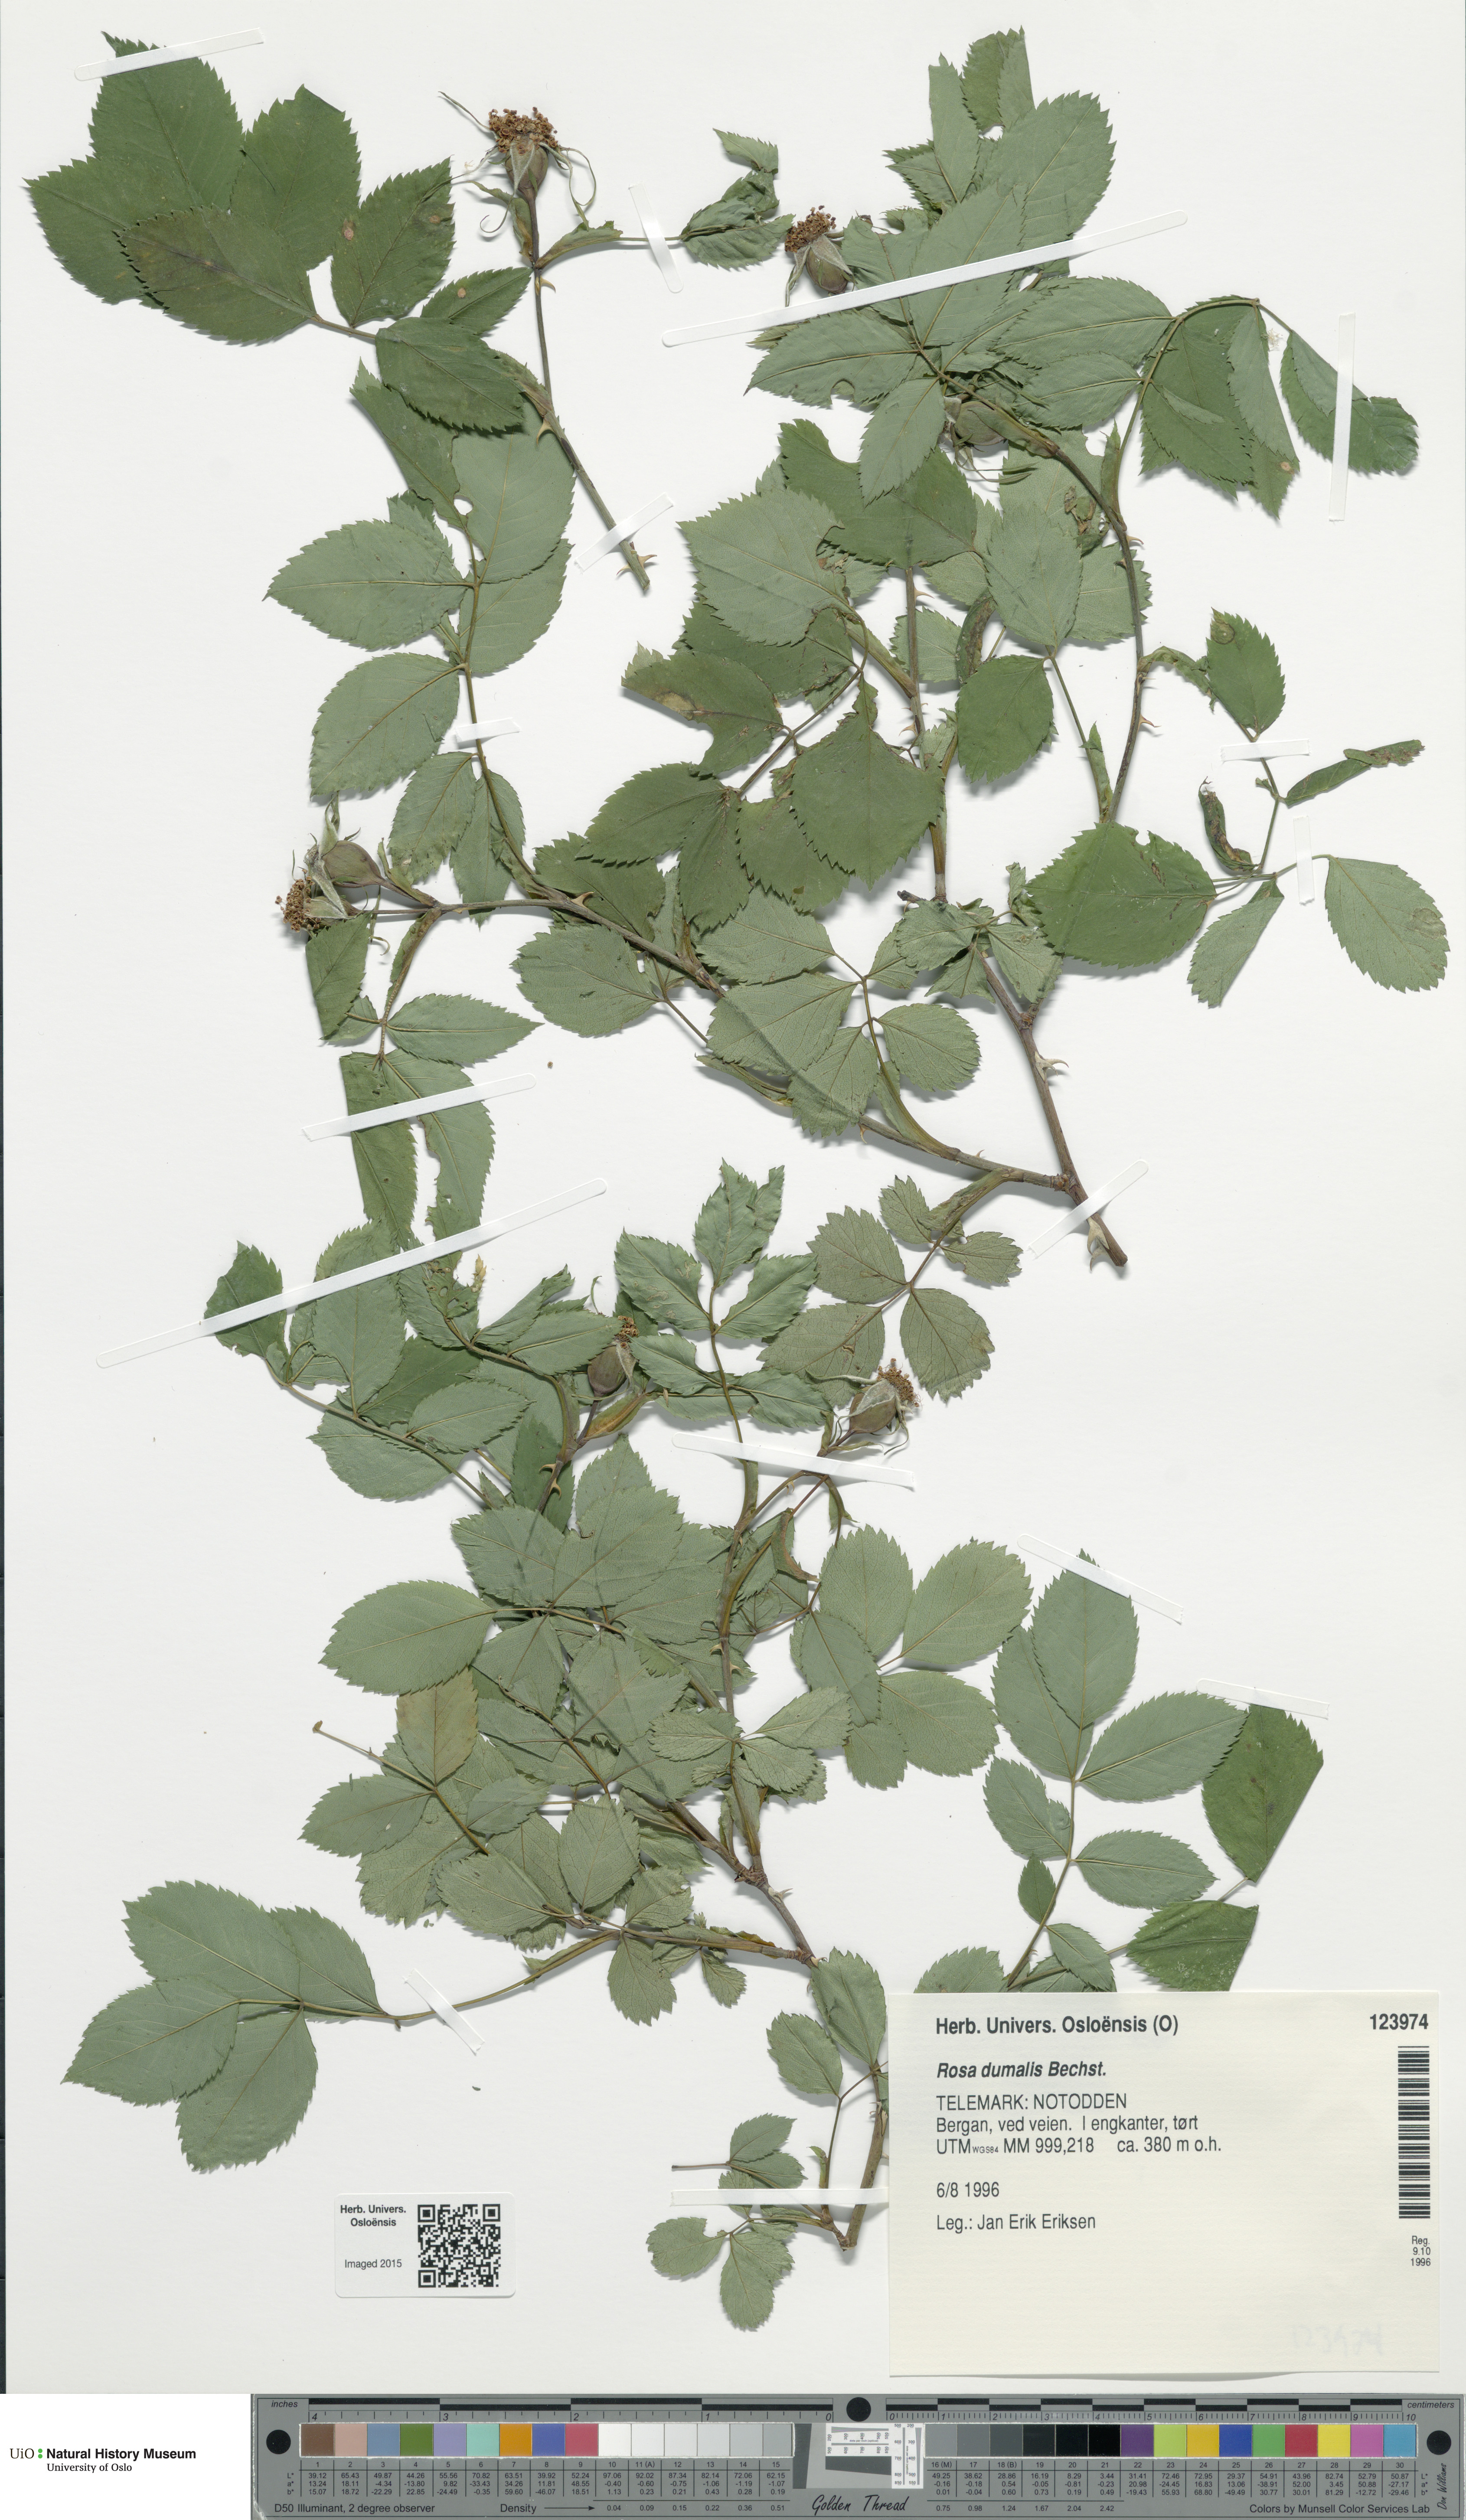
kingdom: Plantae
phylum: Tracheophyta
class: Magnoliopsida
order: Rosales
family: Rosaceae
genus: Rosa
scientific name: Rosa dumalis
